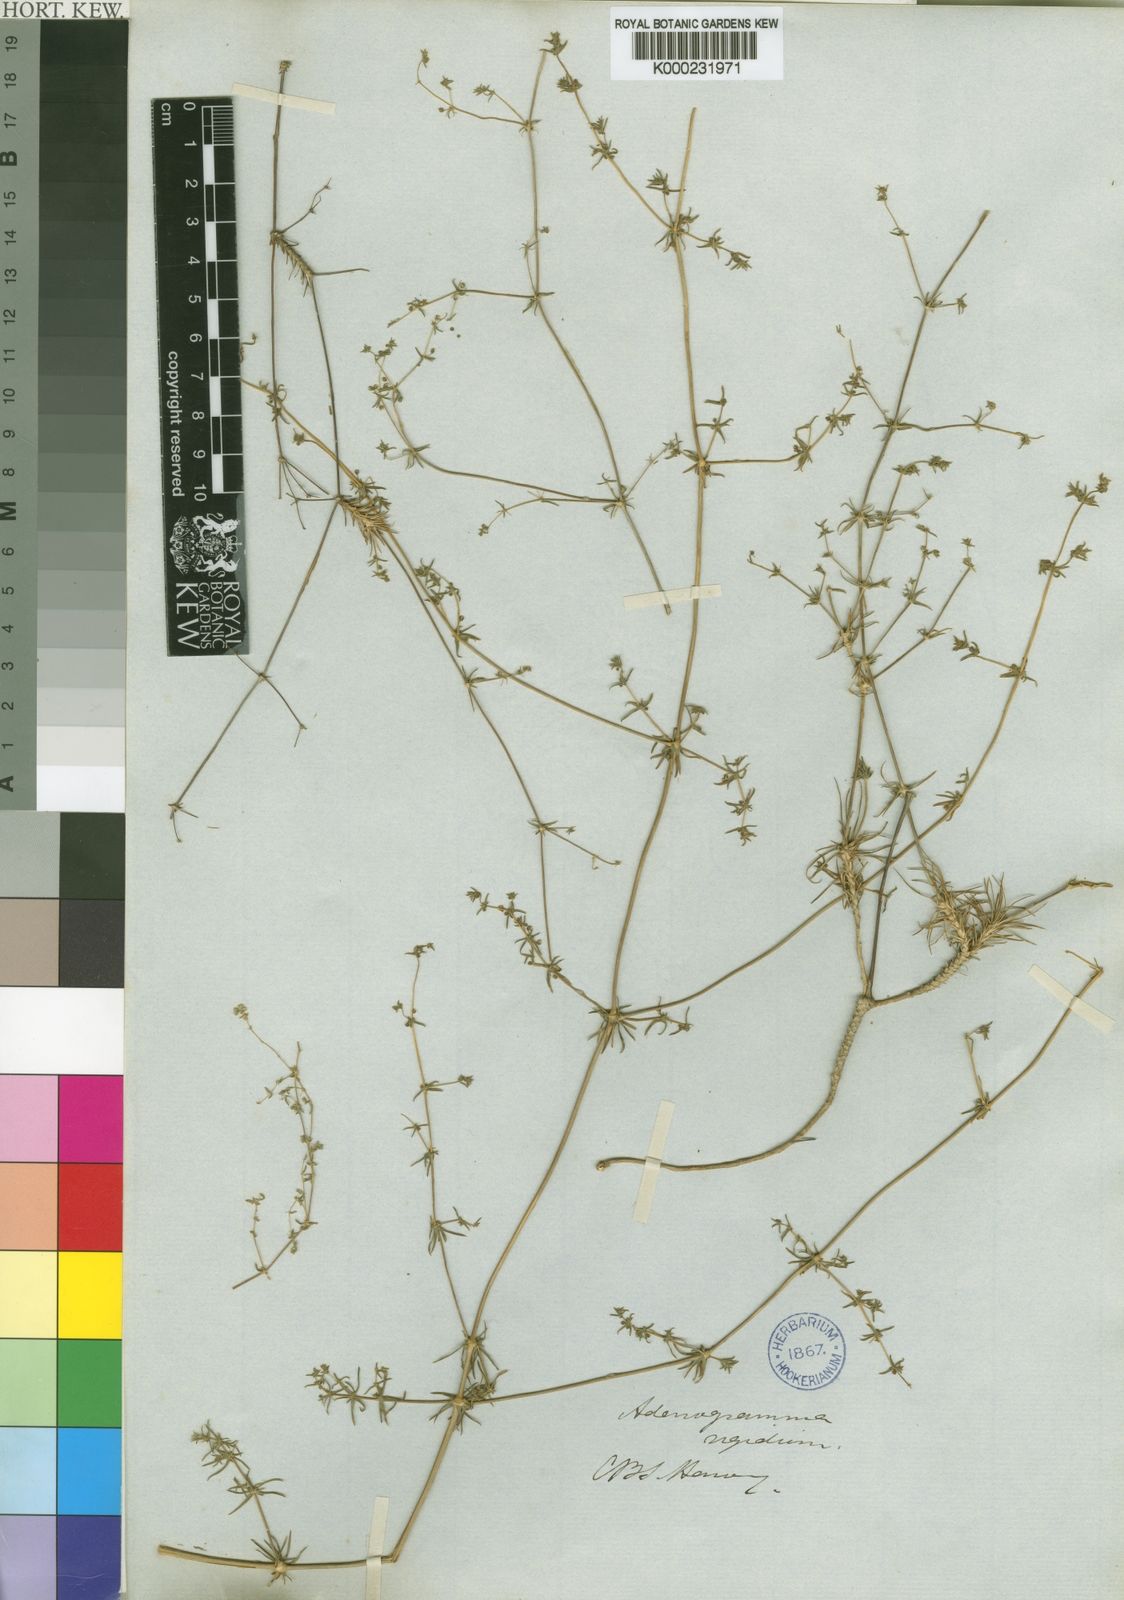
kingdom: Plantae
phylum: Tracheophyta
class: Magnoliopsida
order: Caryophyllales
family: Molluginaceae
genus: Adenogramma
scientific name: Adenogramma rigida
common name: Rigid muggiegrass
